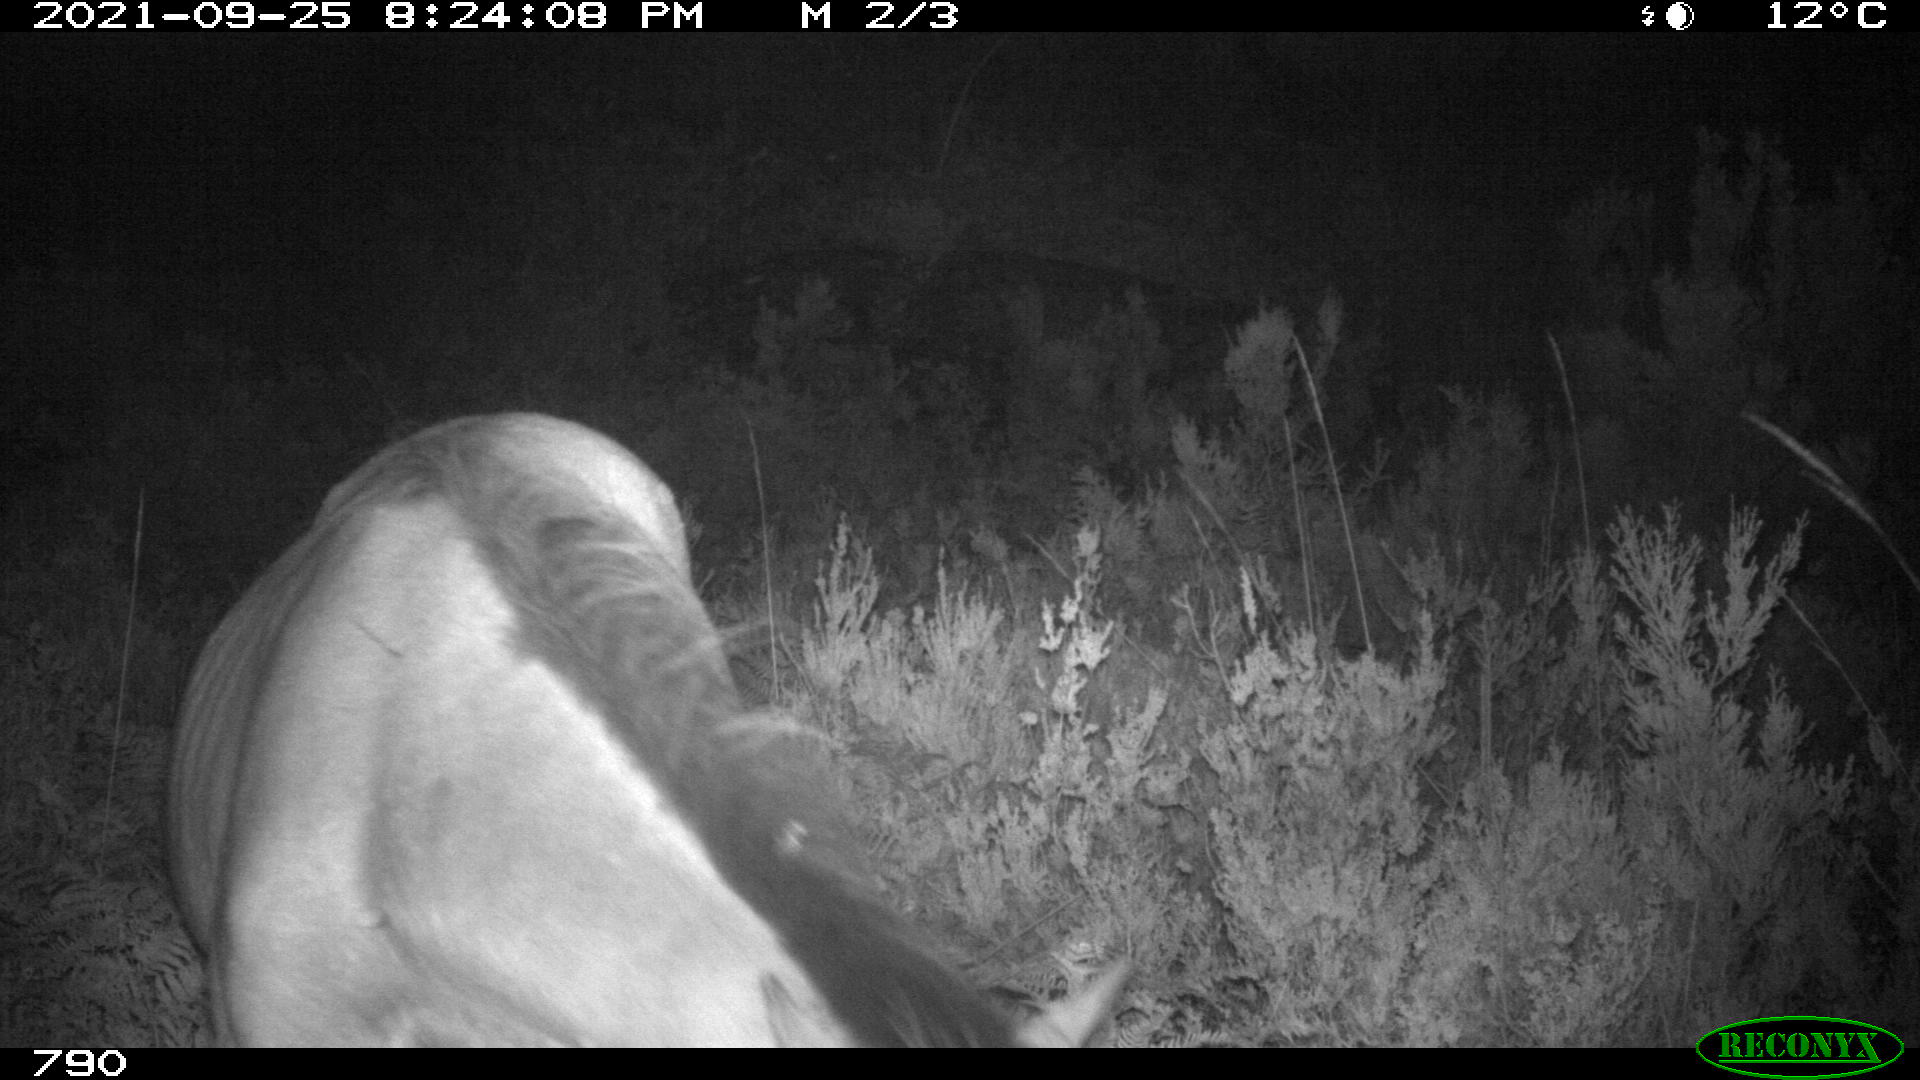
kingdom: Animalia
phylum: Chordata
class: Mammalia
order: Perissodactyla
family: Equidae
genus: Equus
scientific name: Equus caballus
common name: Horse
